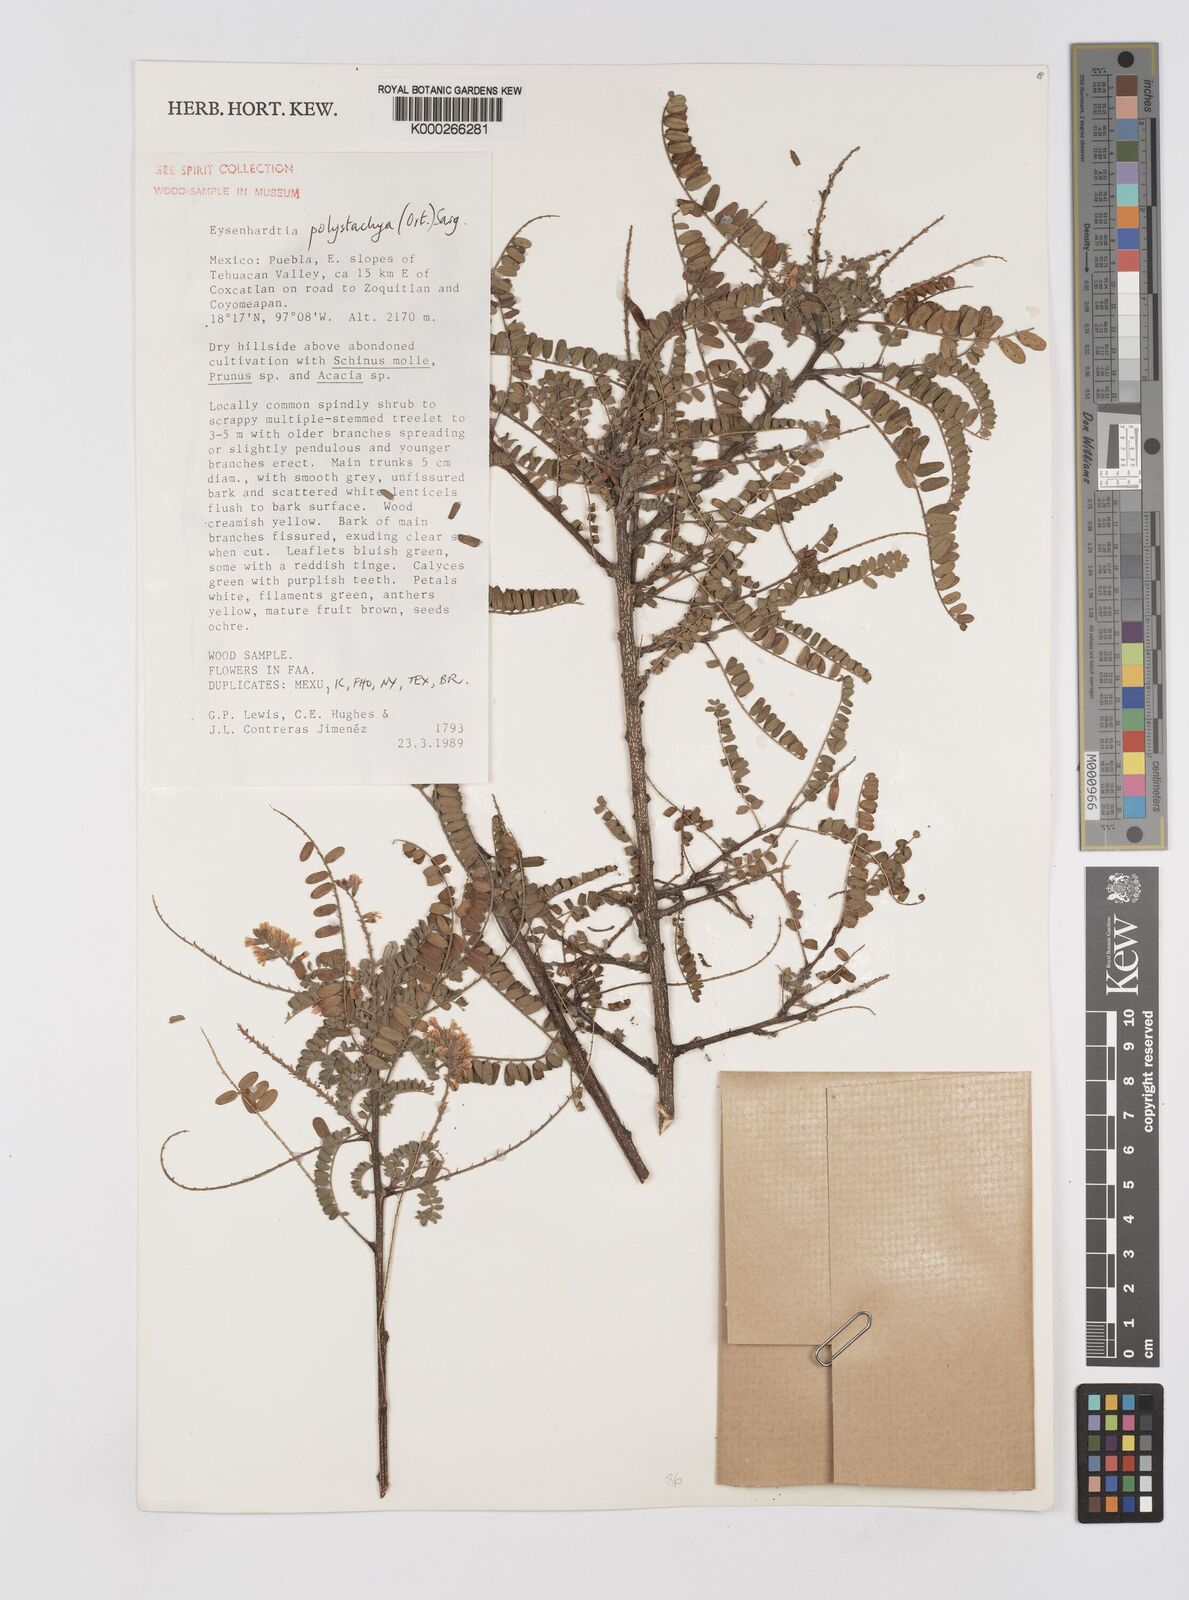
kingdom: Plantae
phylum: Tracheophyta
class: Magnoliopsida
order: Fabales
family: Fabaceae
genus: Eysenhardtia
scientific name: Eysenhardtia polystachya
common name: Kidneywood
